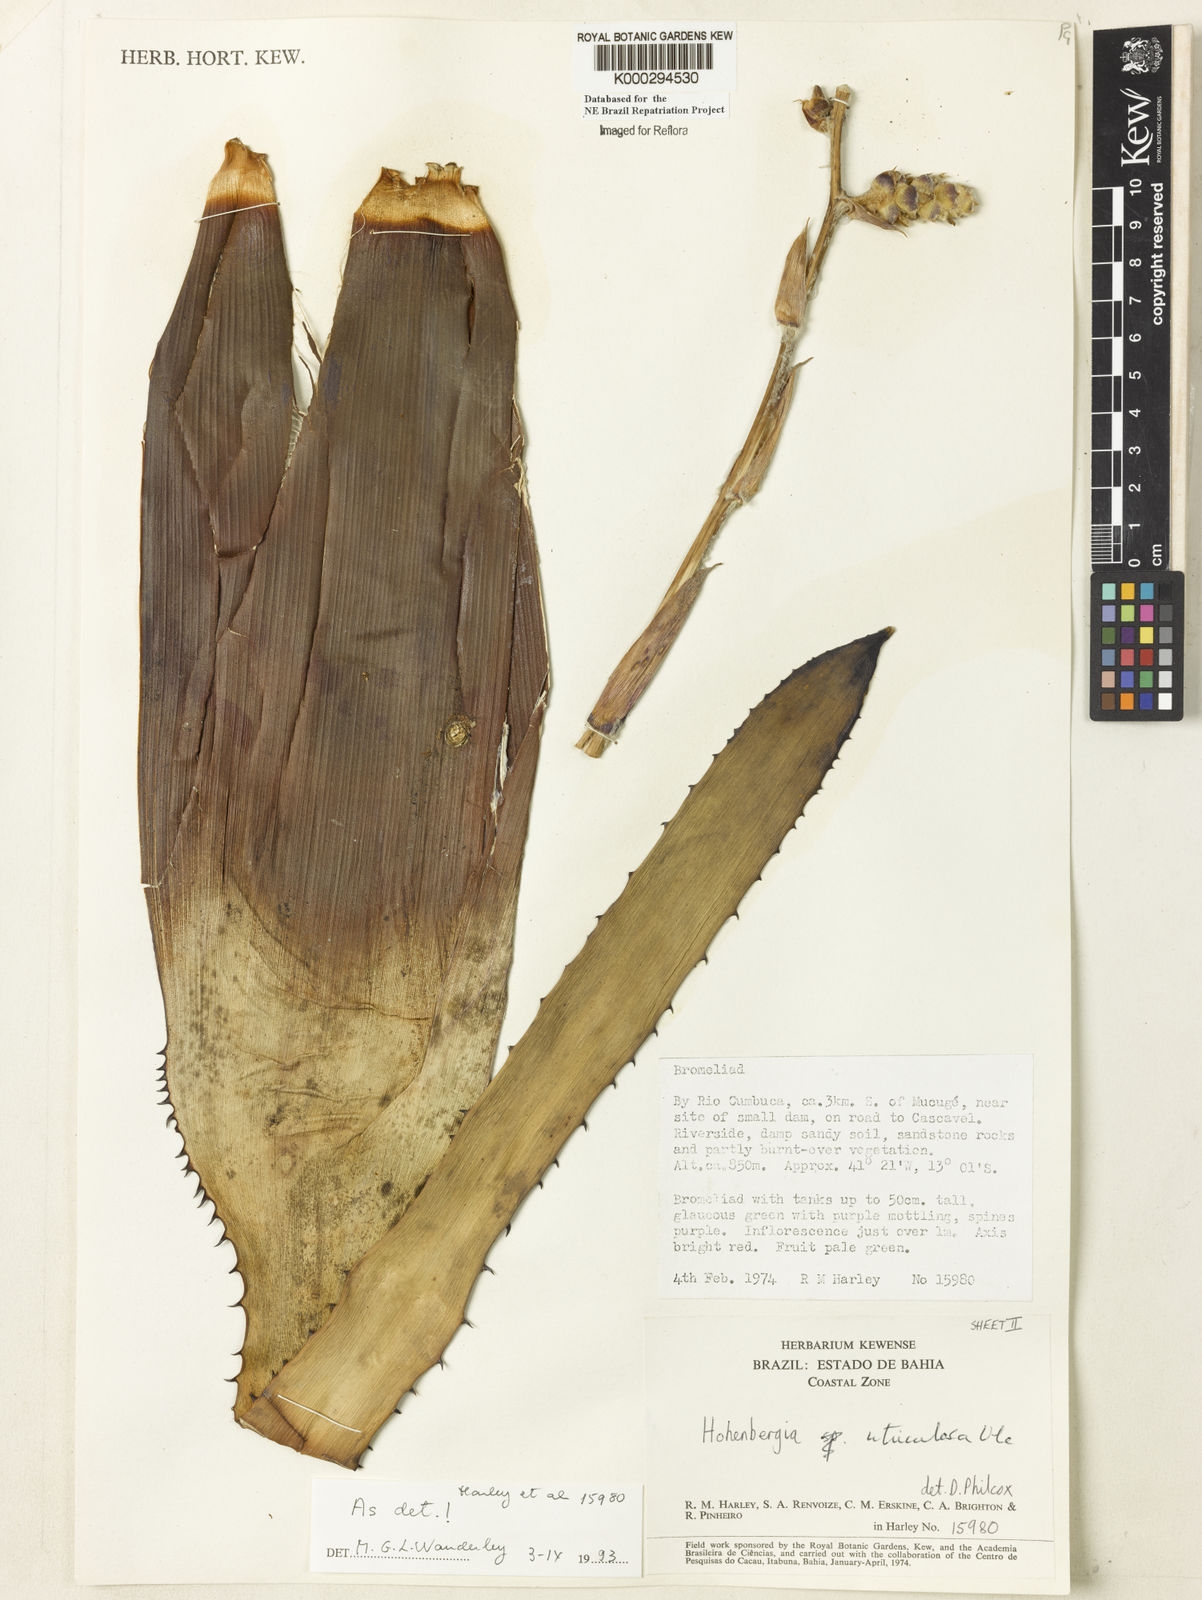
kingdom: Plantae
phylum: Tracheophyta
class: Liliopsida
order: Poales
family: Bromeliaceae
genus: Hohenbergia
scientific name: Hohenbergia utriculosa
